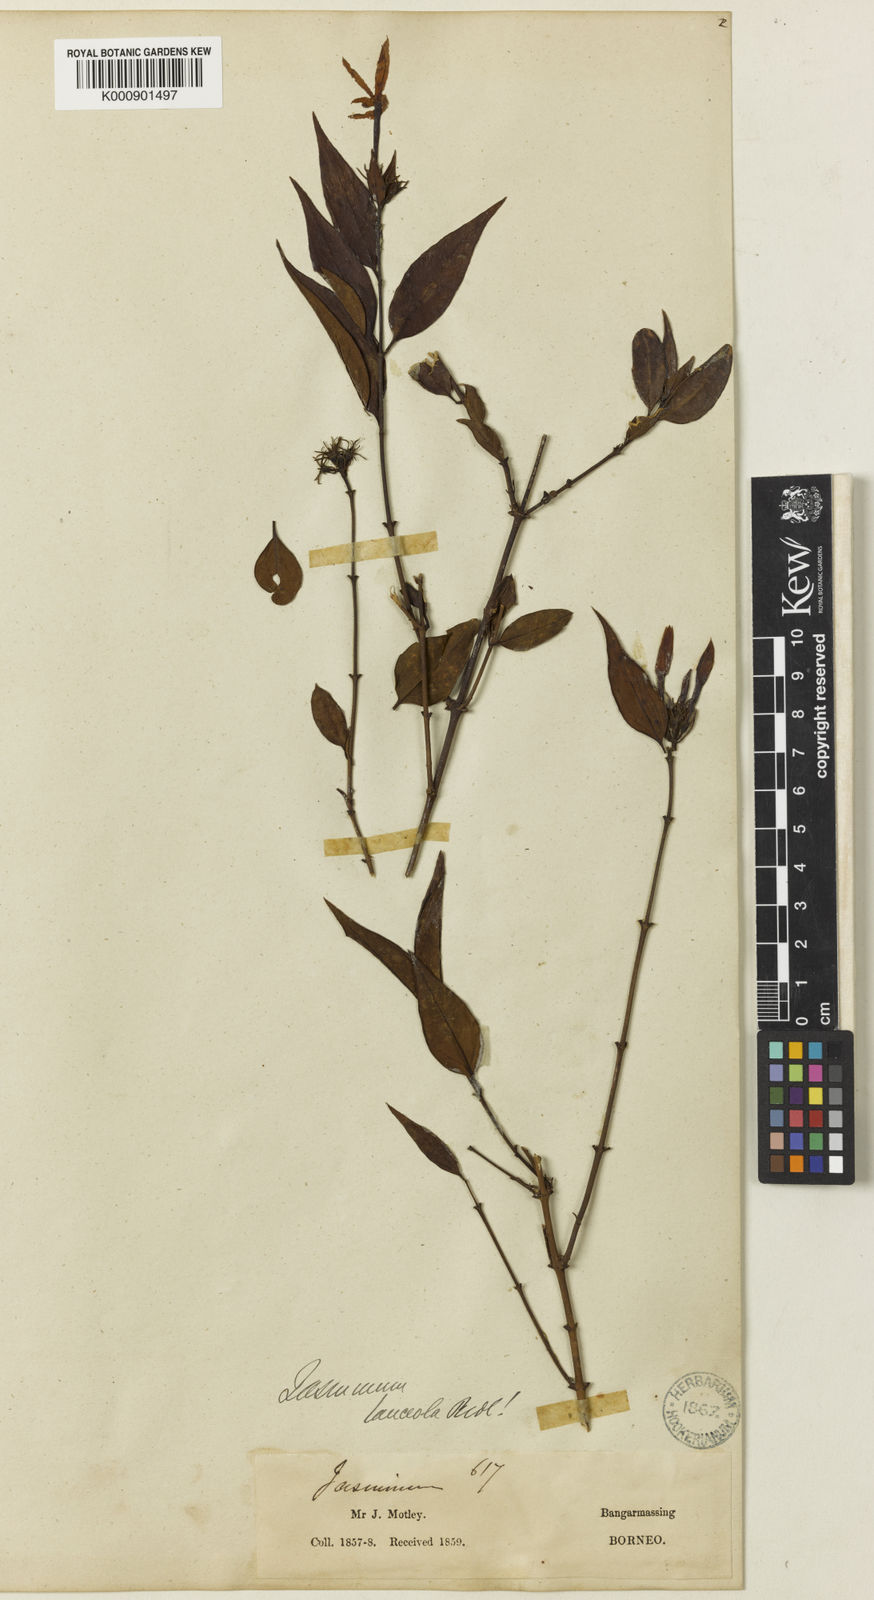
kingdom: Plantae
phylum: Tracheophyta
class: Magnoliopsida
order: Lamiales
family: Oleaceae
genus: Jasminum
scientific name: Jasminum
